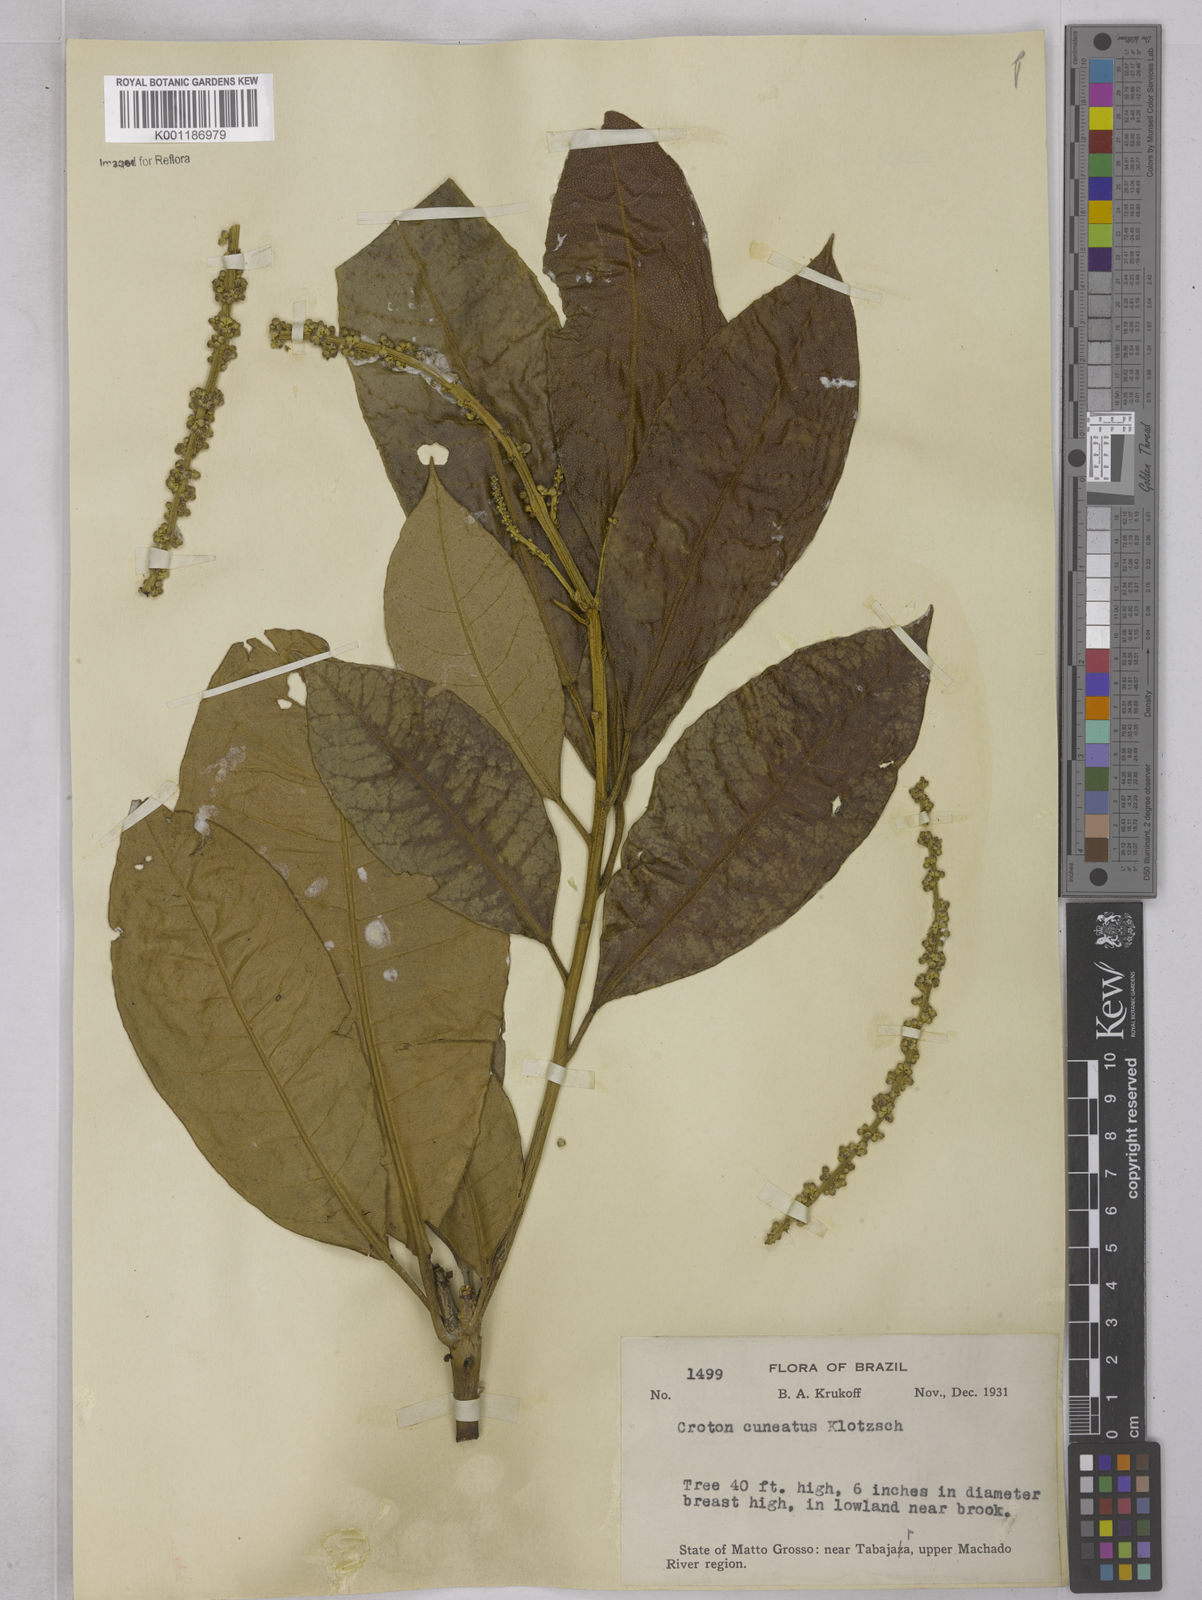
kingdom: Plantae
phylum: Tracheophyta
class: Magnoliopsida
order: Malpighiales
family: Euphorbiaceae
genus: Croton
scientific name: Croton
